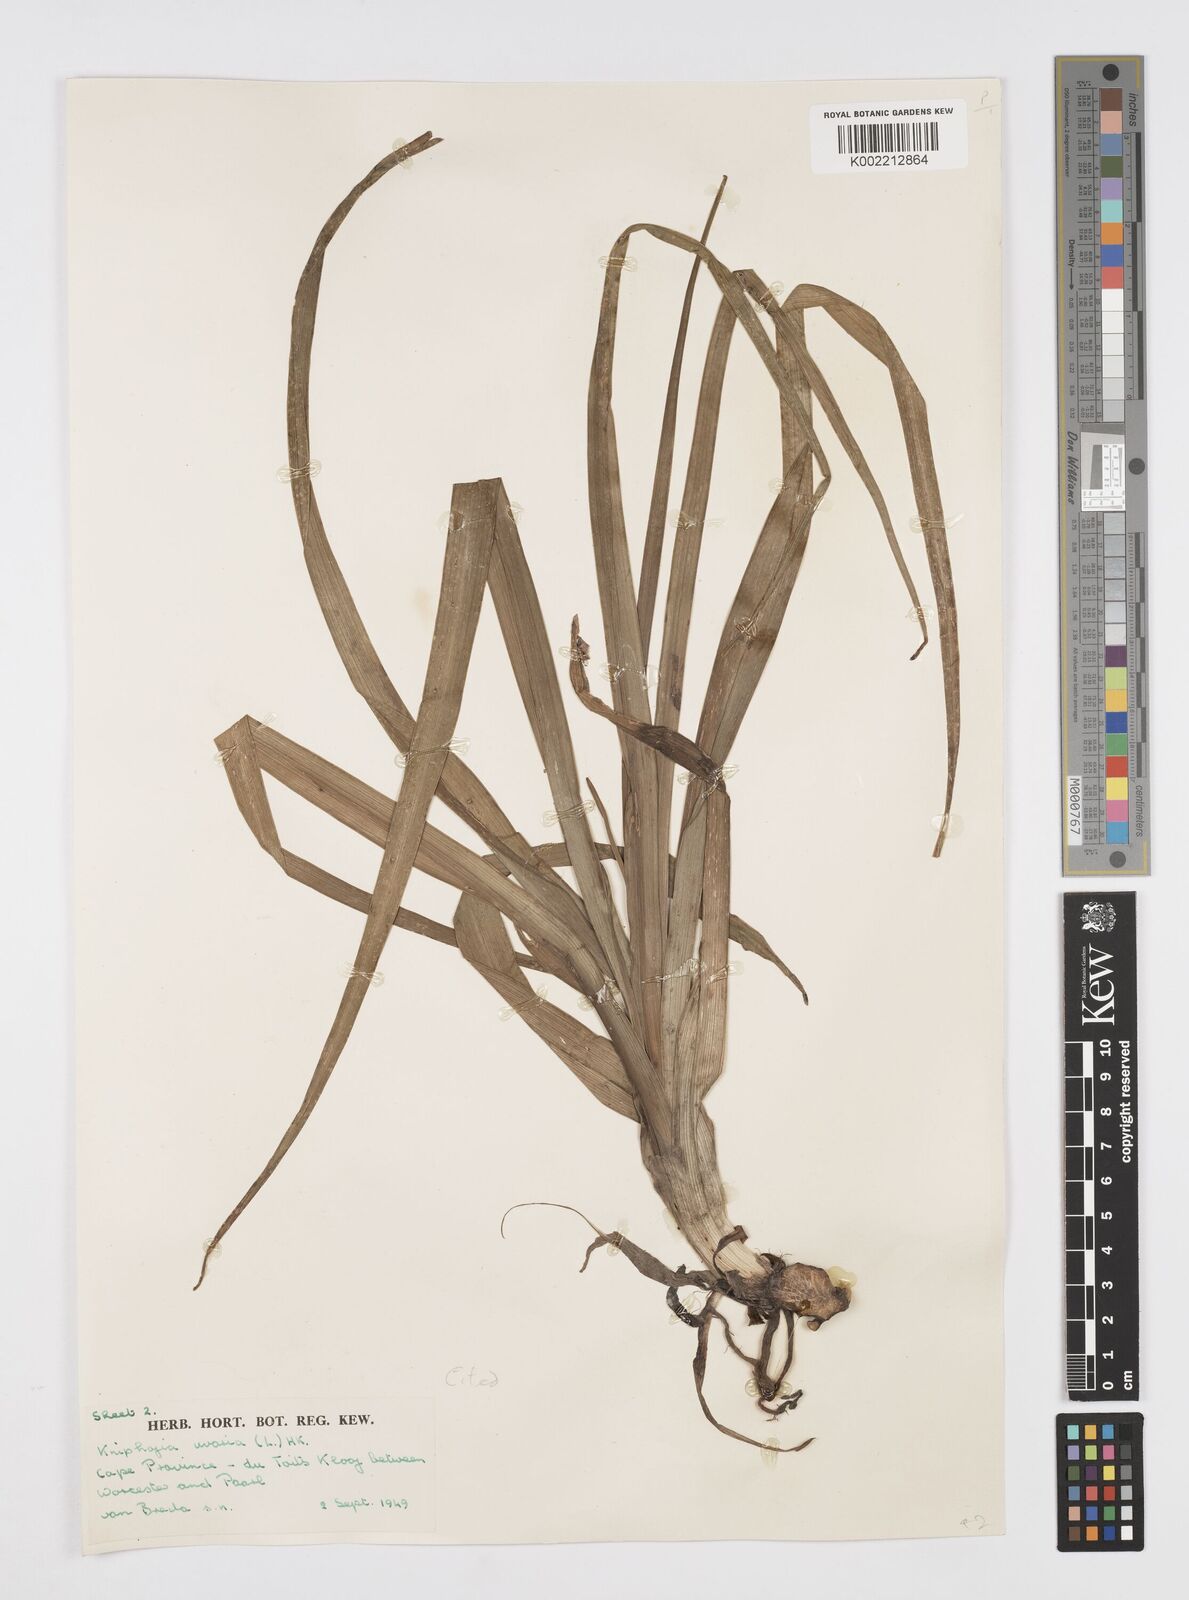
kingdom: Plantae
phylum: Tracheophyta
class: Liliopsida
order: Asparagales
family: Asphodelaceae
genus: Kniphofia
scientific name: Kniphofia uvaria
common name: Red-hot-poker
